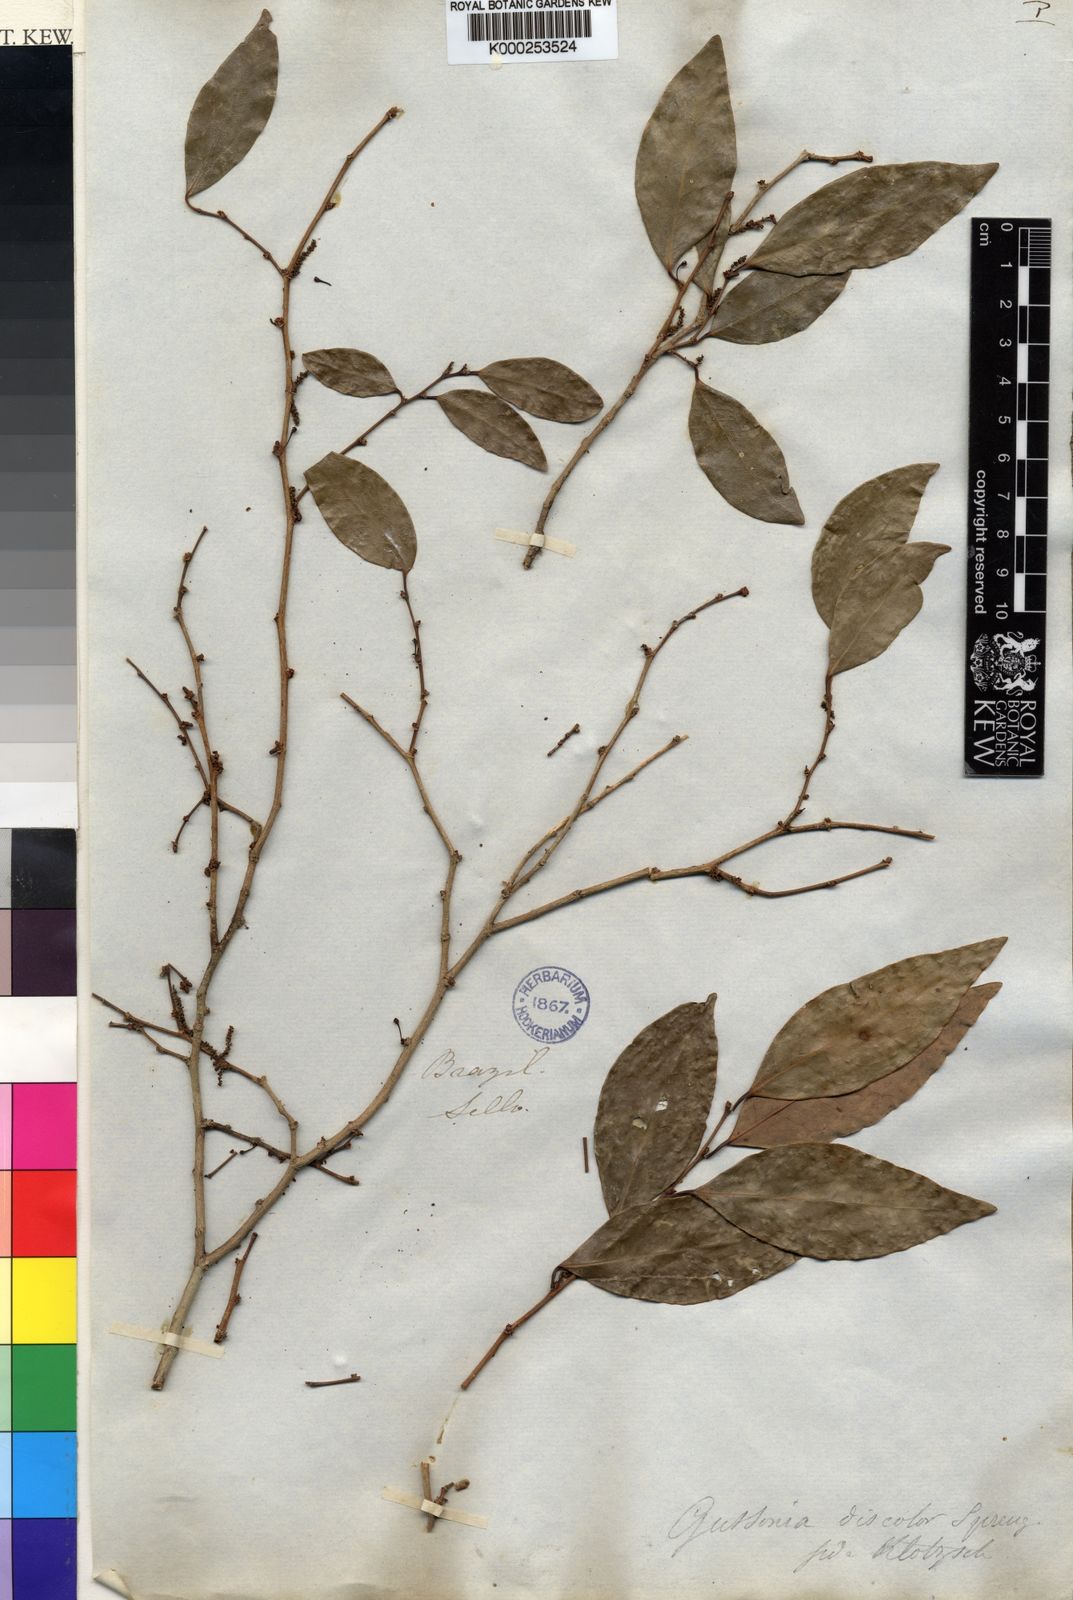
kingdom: Plantae
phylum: Tracheophyta
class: Magnoliopsida
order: Malpighiales
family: Euphorbiaceae
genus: Gymnanthes
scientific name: Gymnanthes
